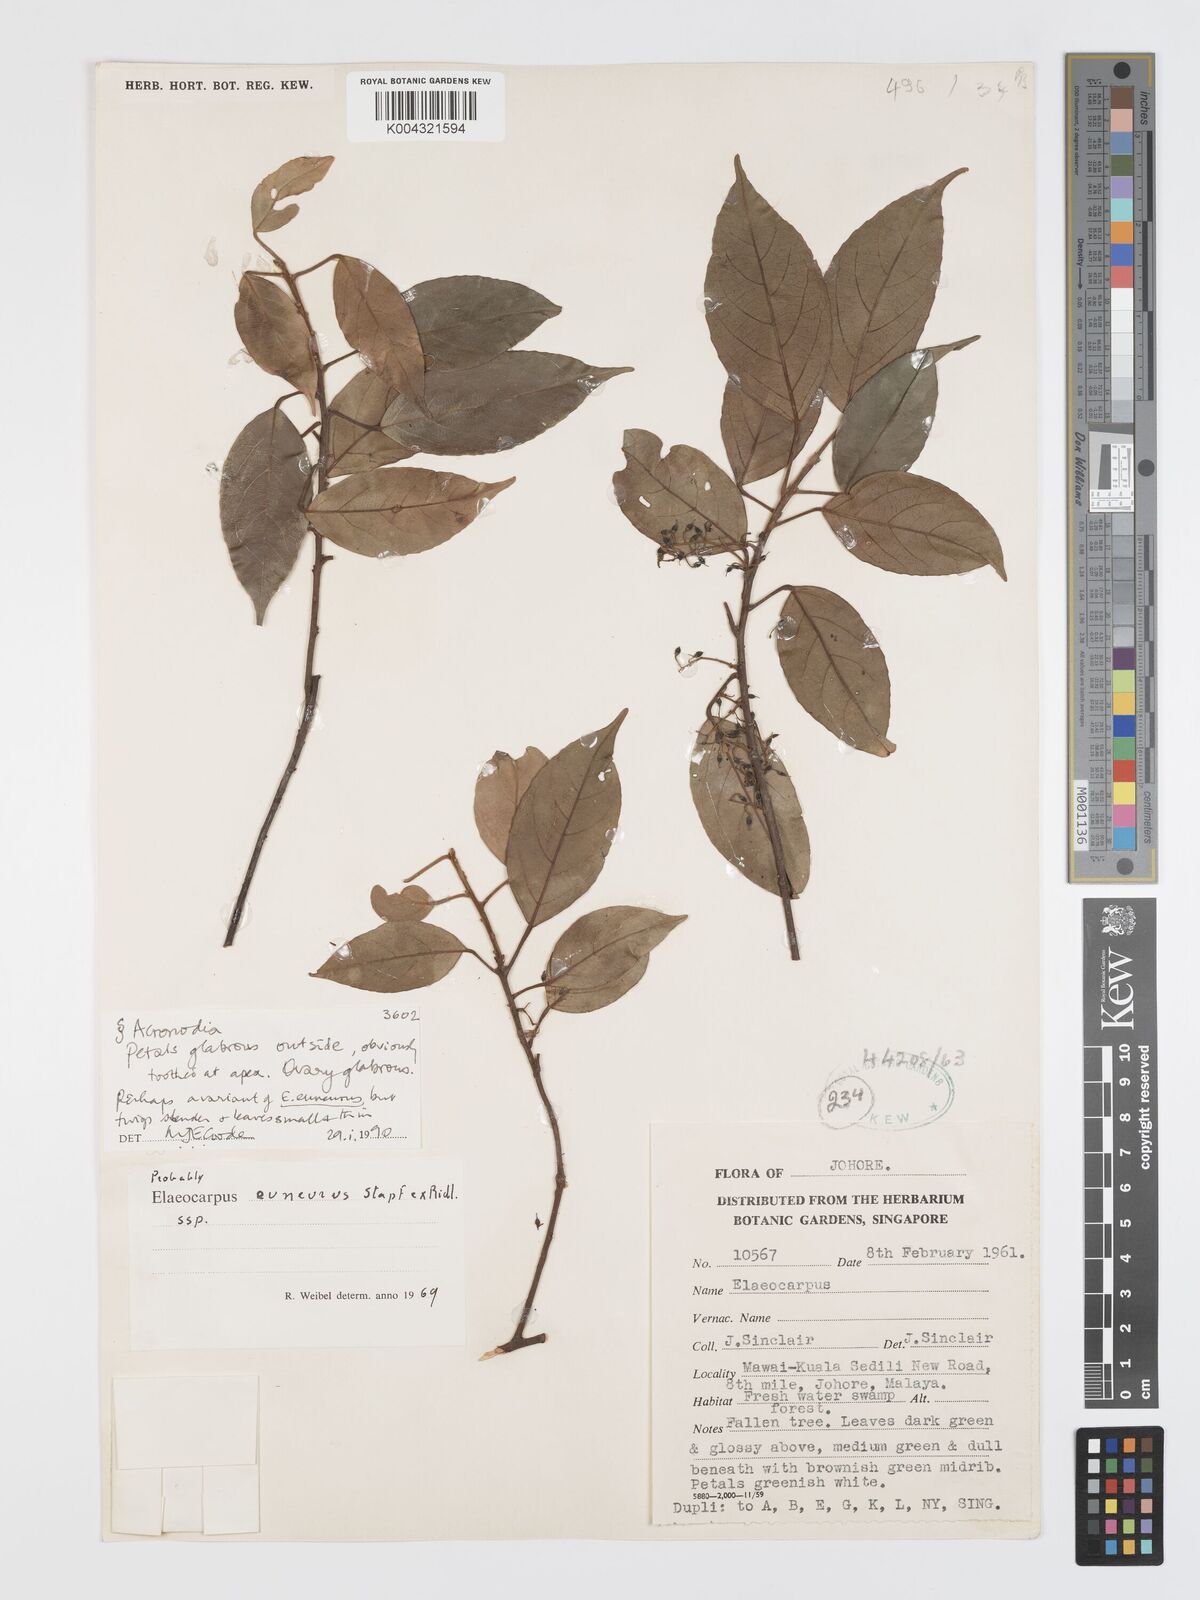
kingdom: Plantae
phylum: Tracheophyta
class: Magnoliopsida
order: Oxalidales
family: Elaeocarpaceae
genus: Elaeocarpus
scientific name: Elaeocarpus euneurus
